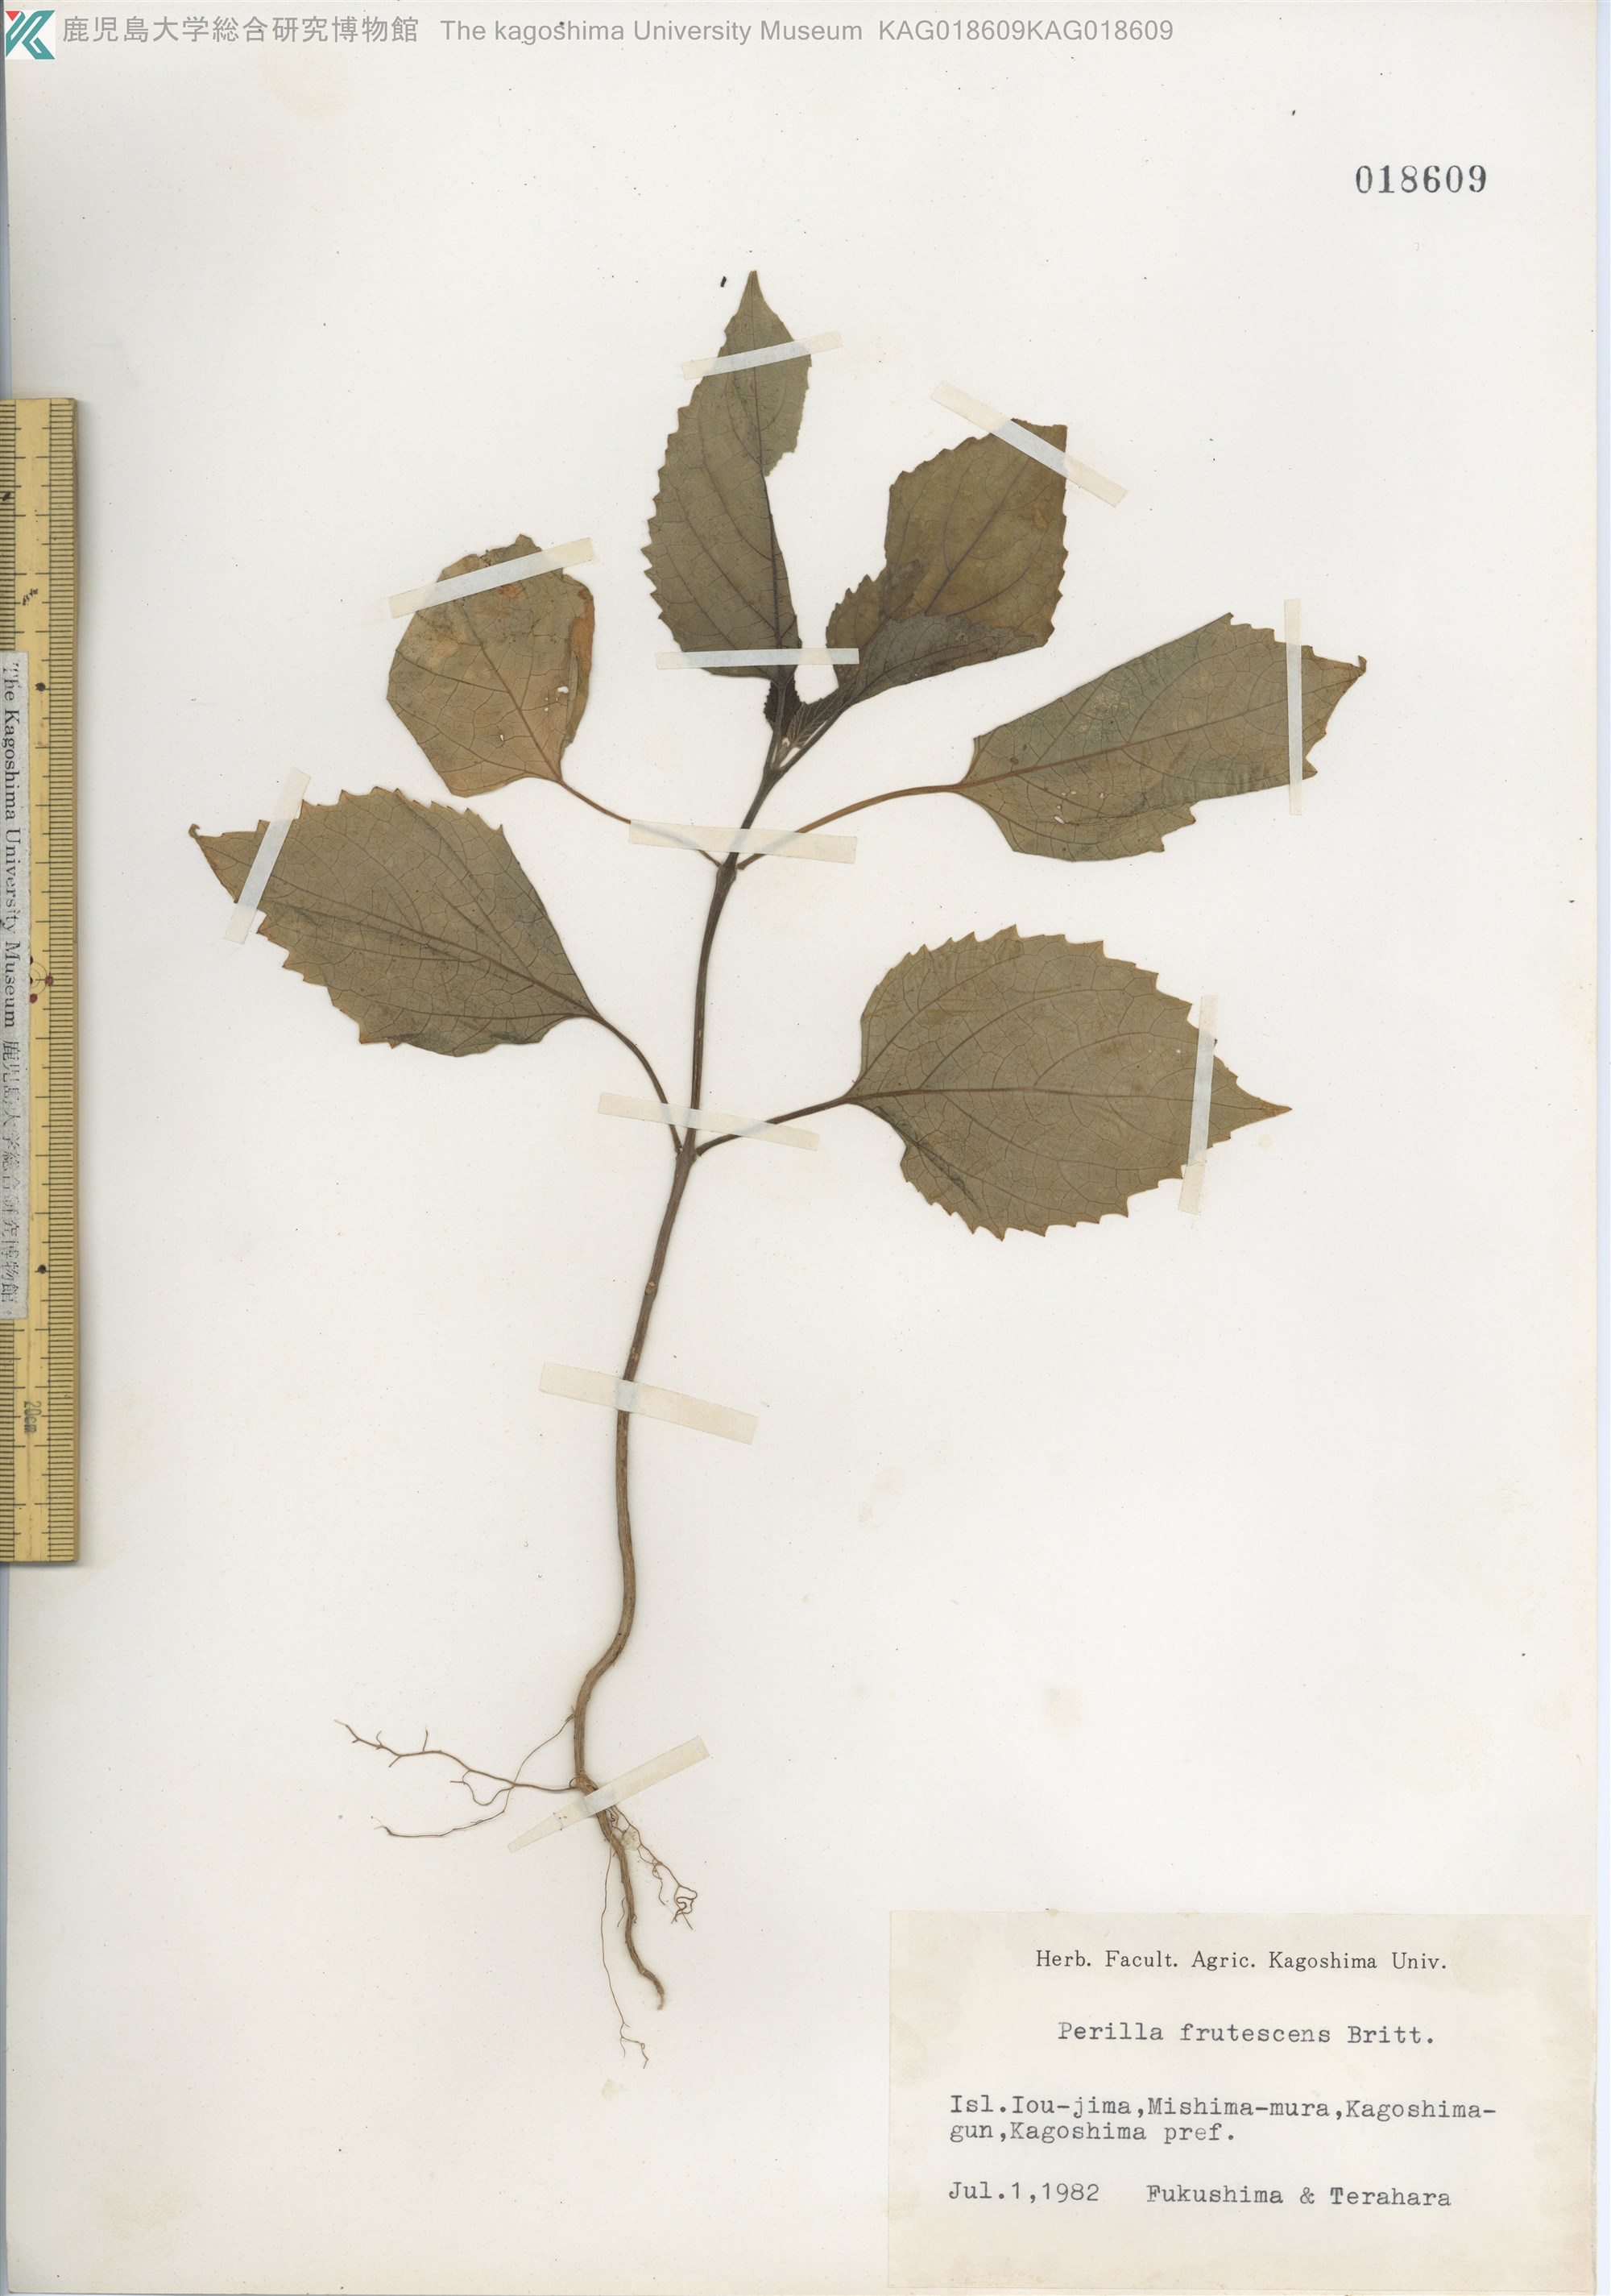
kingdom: Plantae
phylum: Tracheophyta
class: Magnoliopsida
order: Lamiales
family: Lamiaceae
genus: Perilla
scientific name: Perilla frutescens
